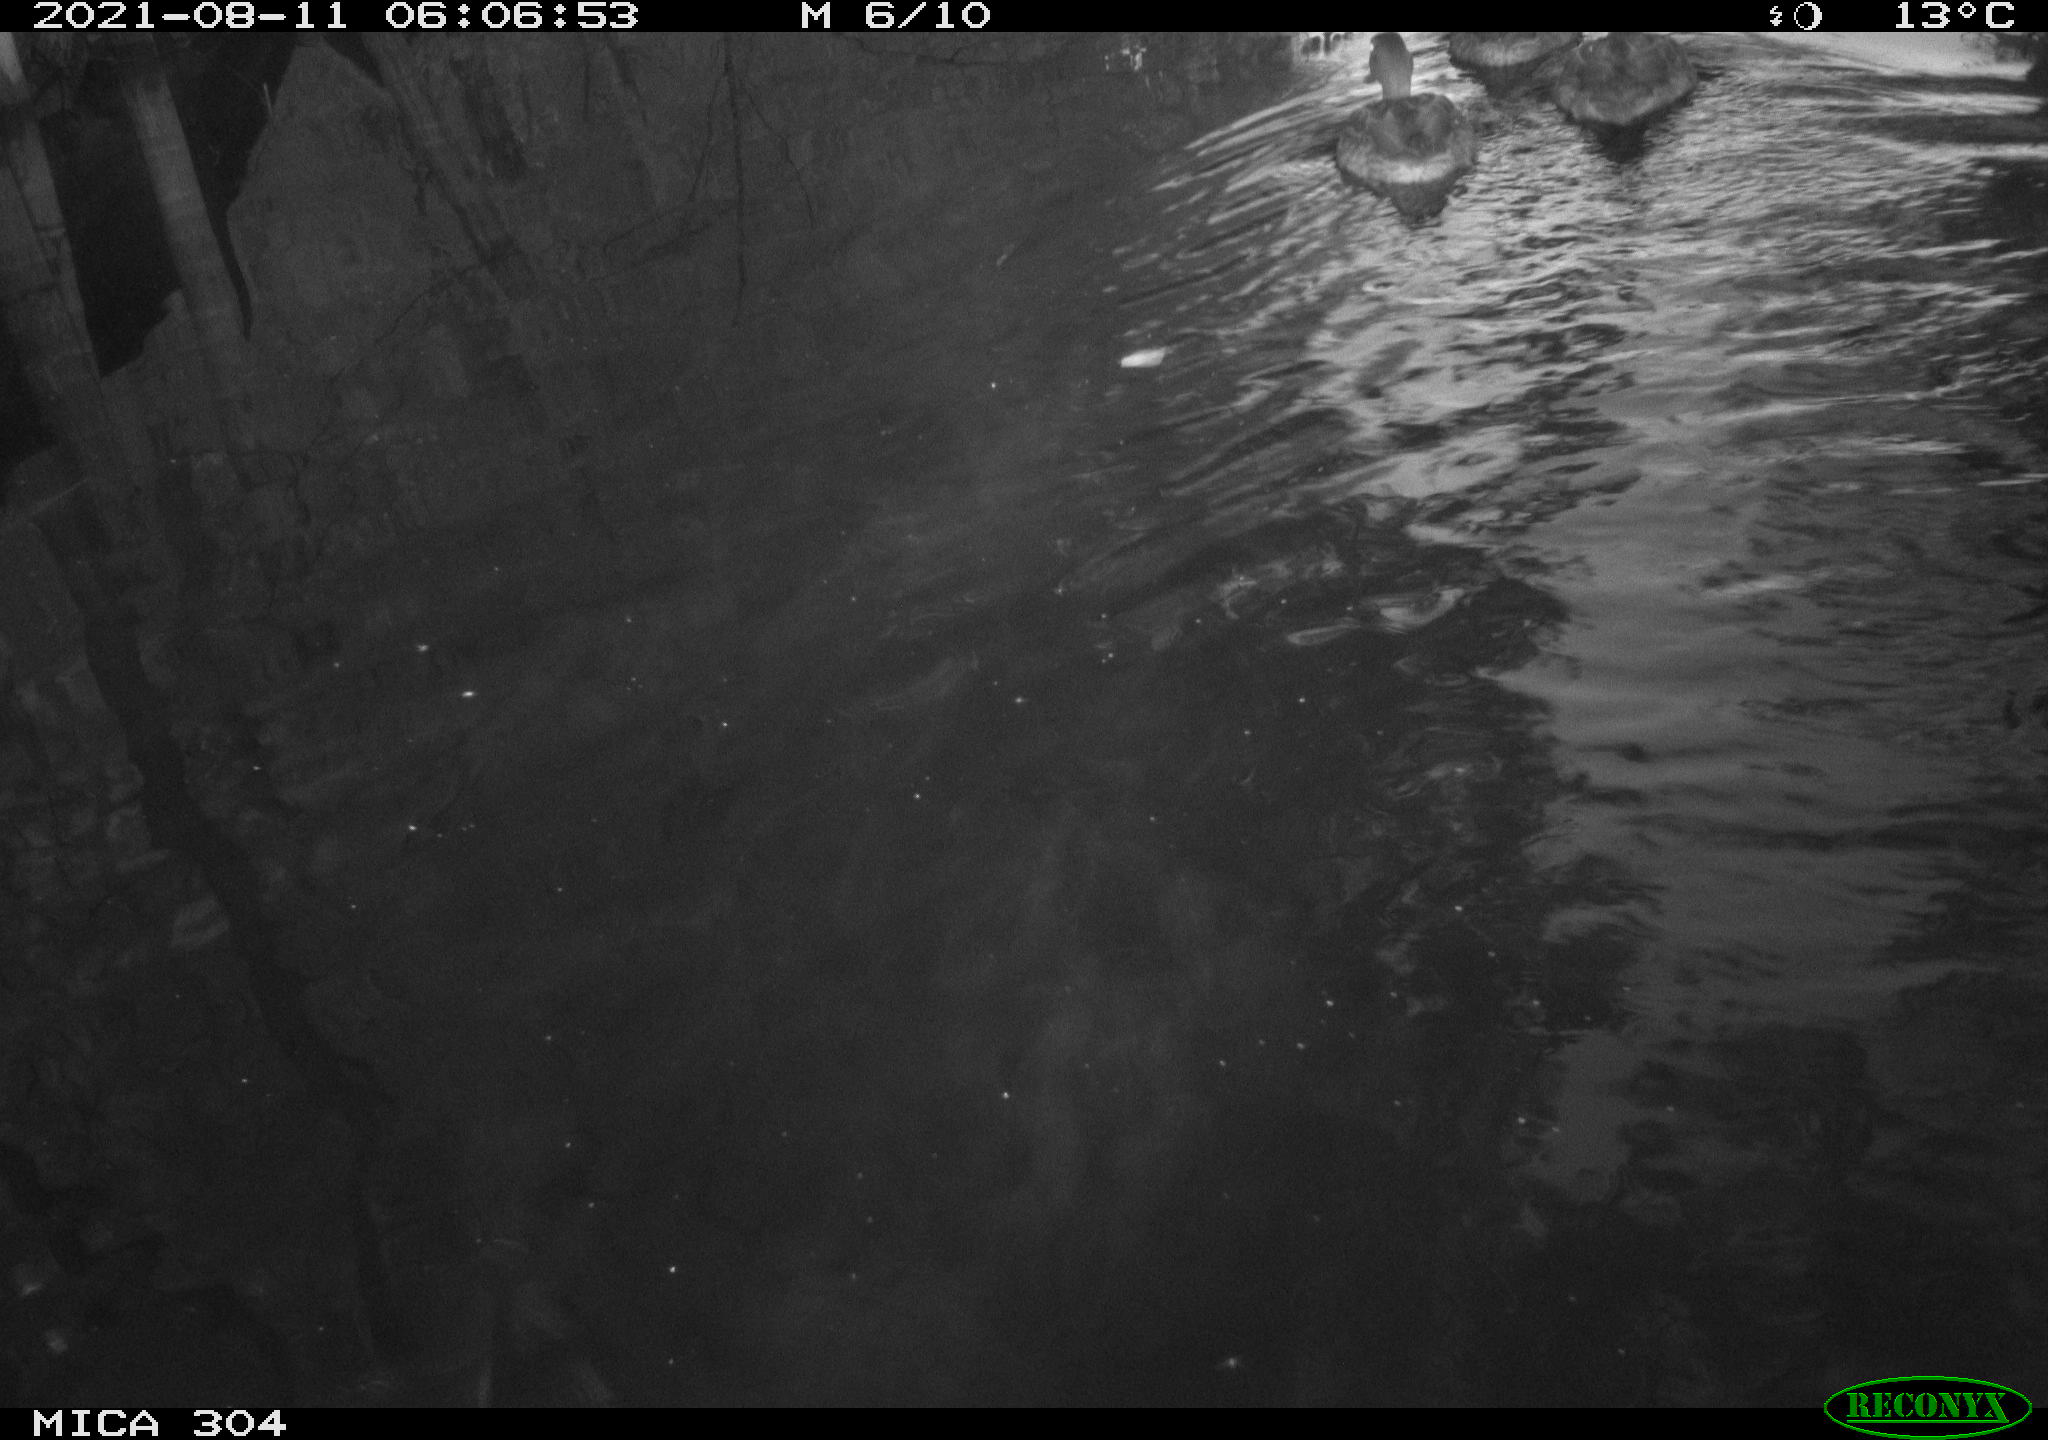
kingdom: Animalia
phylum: Chordata
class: Aves
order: Anseriformes
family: Anatidae
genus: Mareca
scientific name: Mareca strepera
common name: Gadwall
